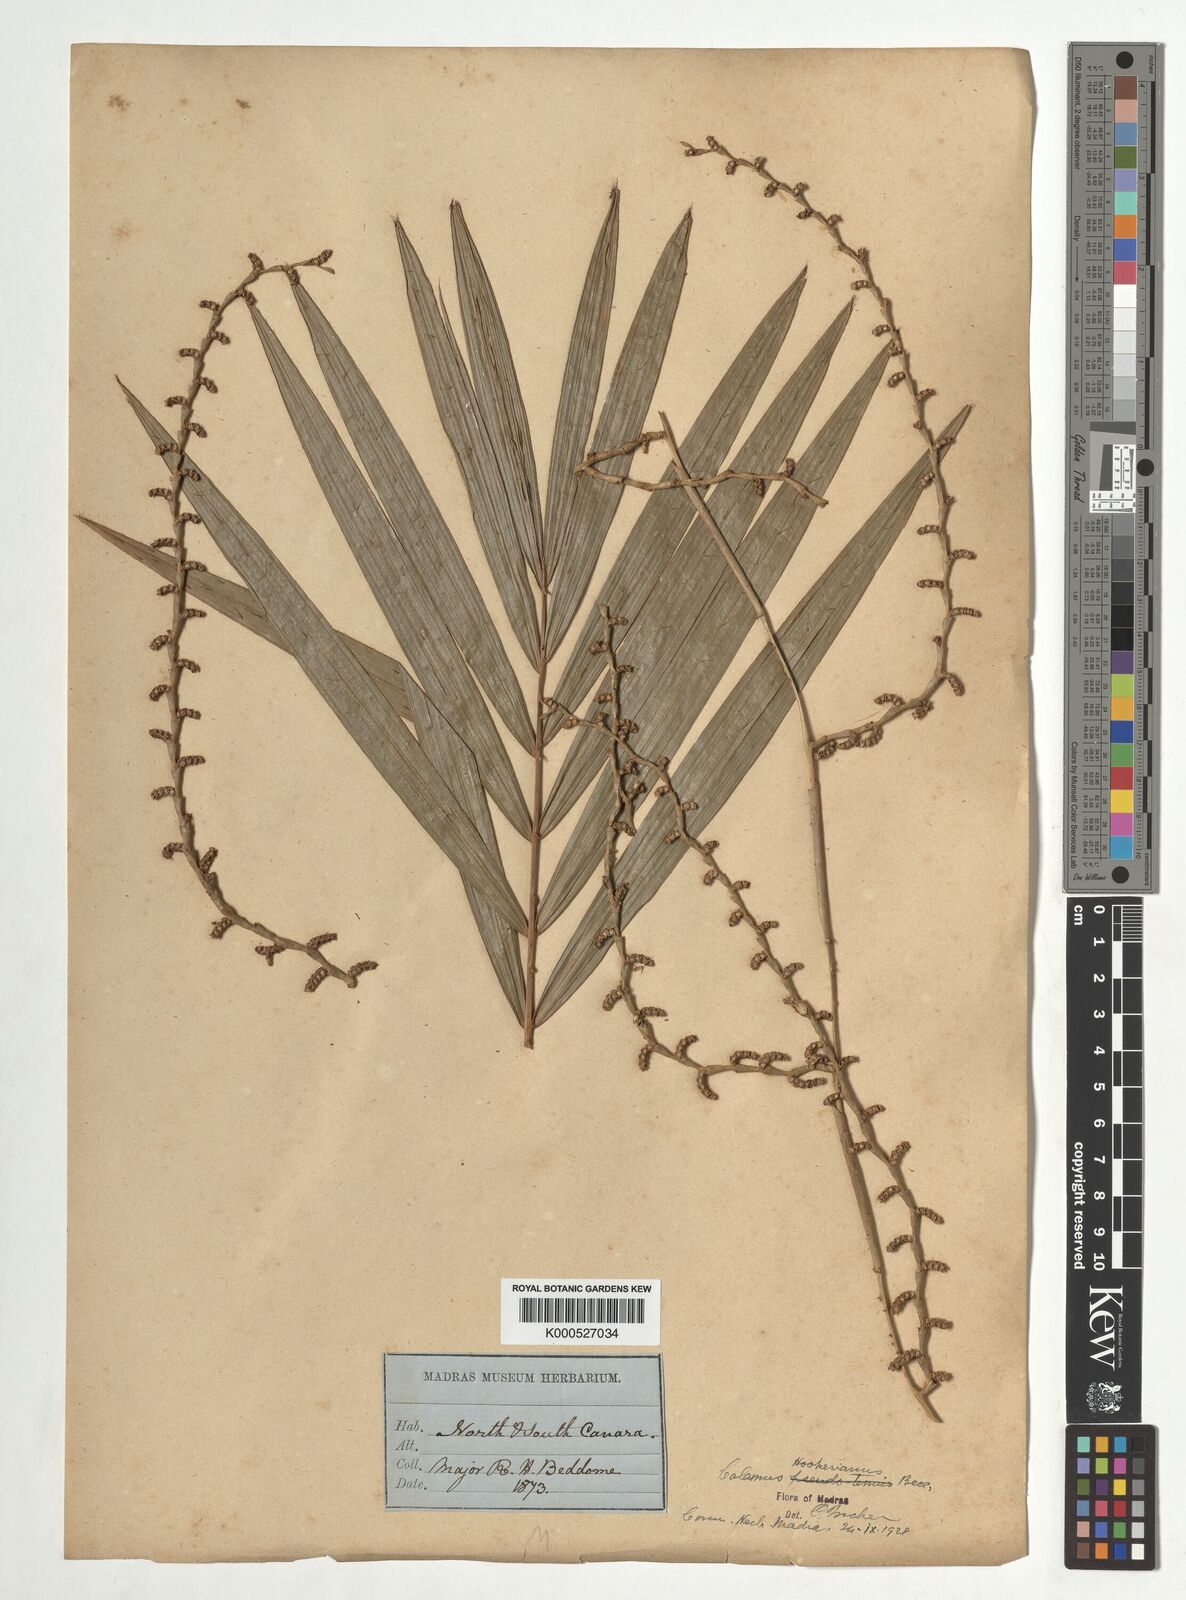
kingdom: Plantae
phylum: Tracheophyta
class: Liliopsida
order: Arecales
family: Arecaceae
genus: Calamus
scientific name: Calamus hookerianus
